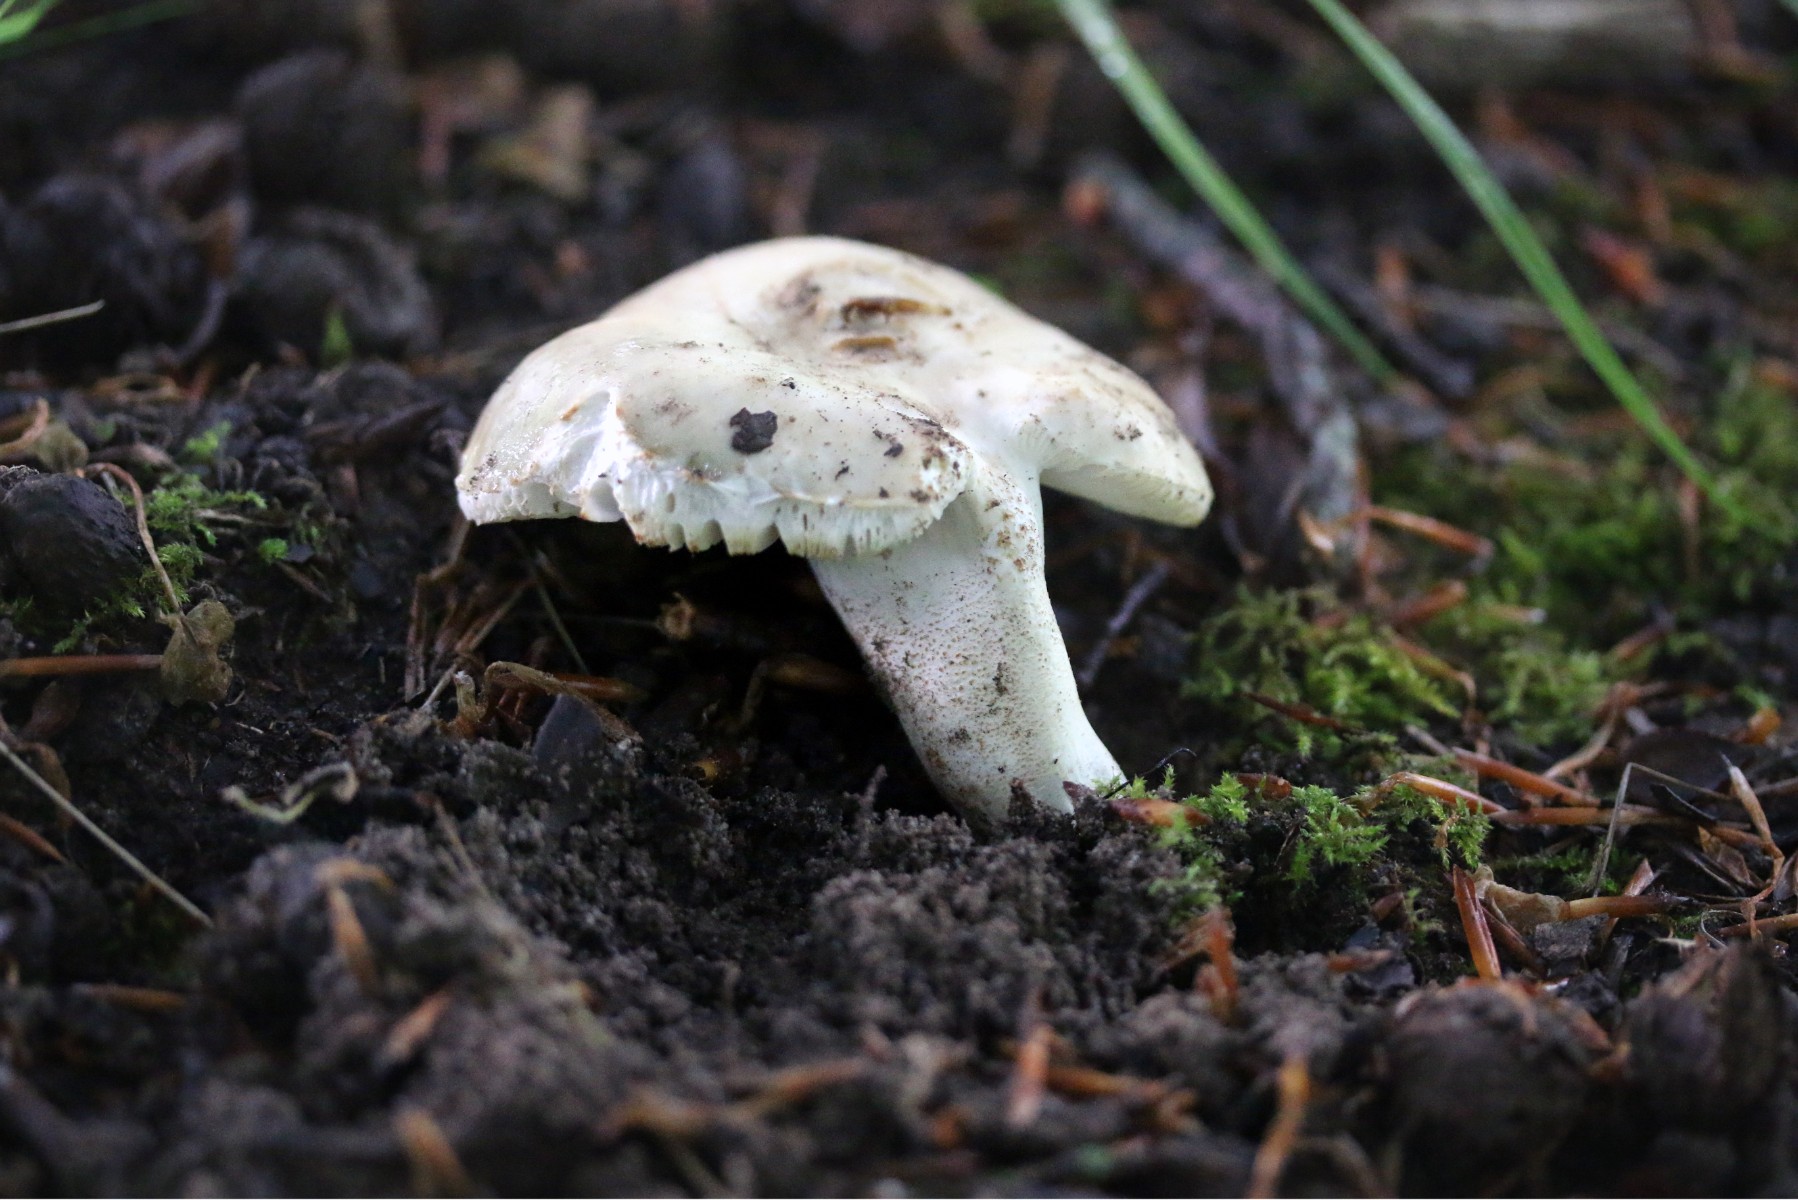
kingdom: Fungi
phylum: Basidiomycota
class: Agaricomycetes
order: Russulales
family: Russulaceae
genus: Russula
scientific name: Russula cyanoxantha
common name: broget skørhat
